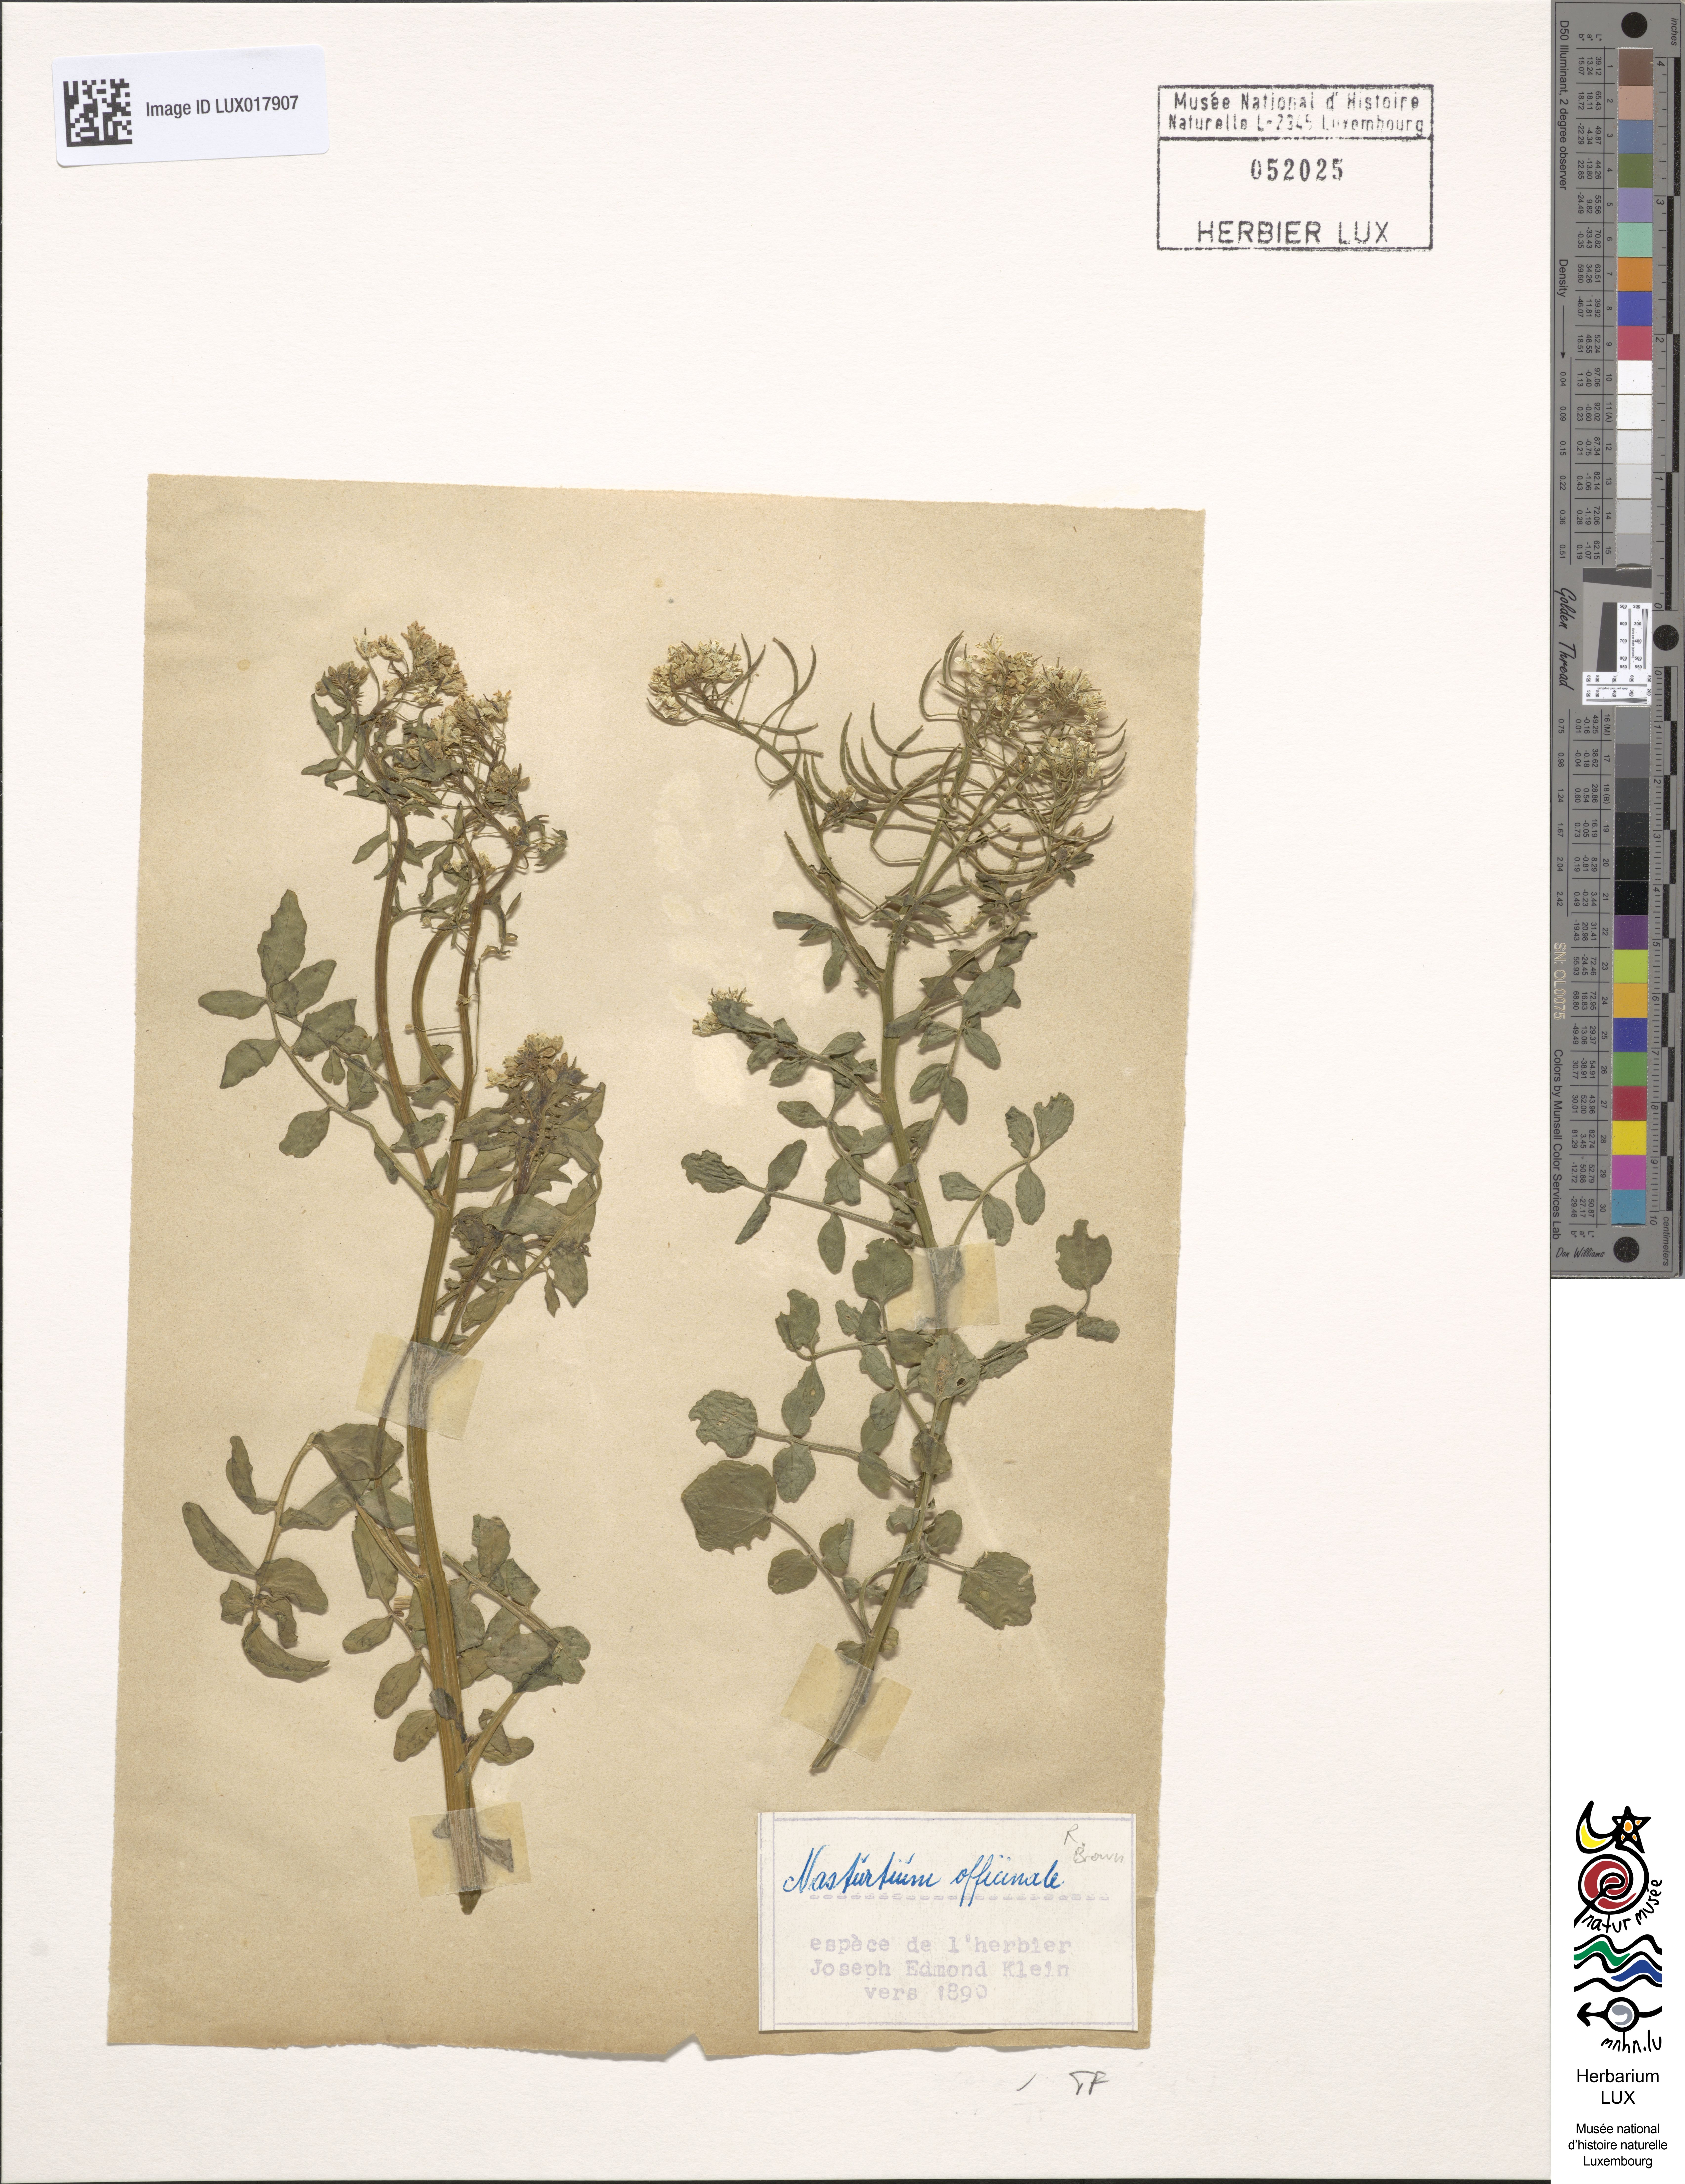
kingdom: Plantae
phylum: Tracheophyta
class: Magnoliopsida
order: Brassicales
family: Brassicaceae
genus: Nasturtium
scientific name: Nasturtium officinale
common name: Watercress
